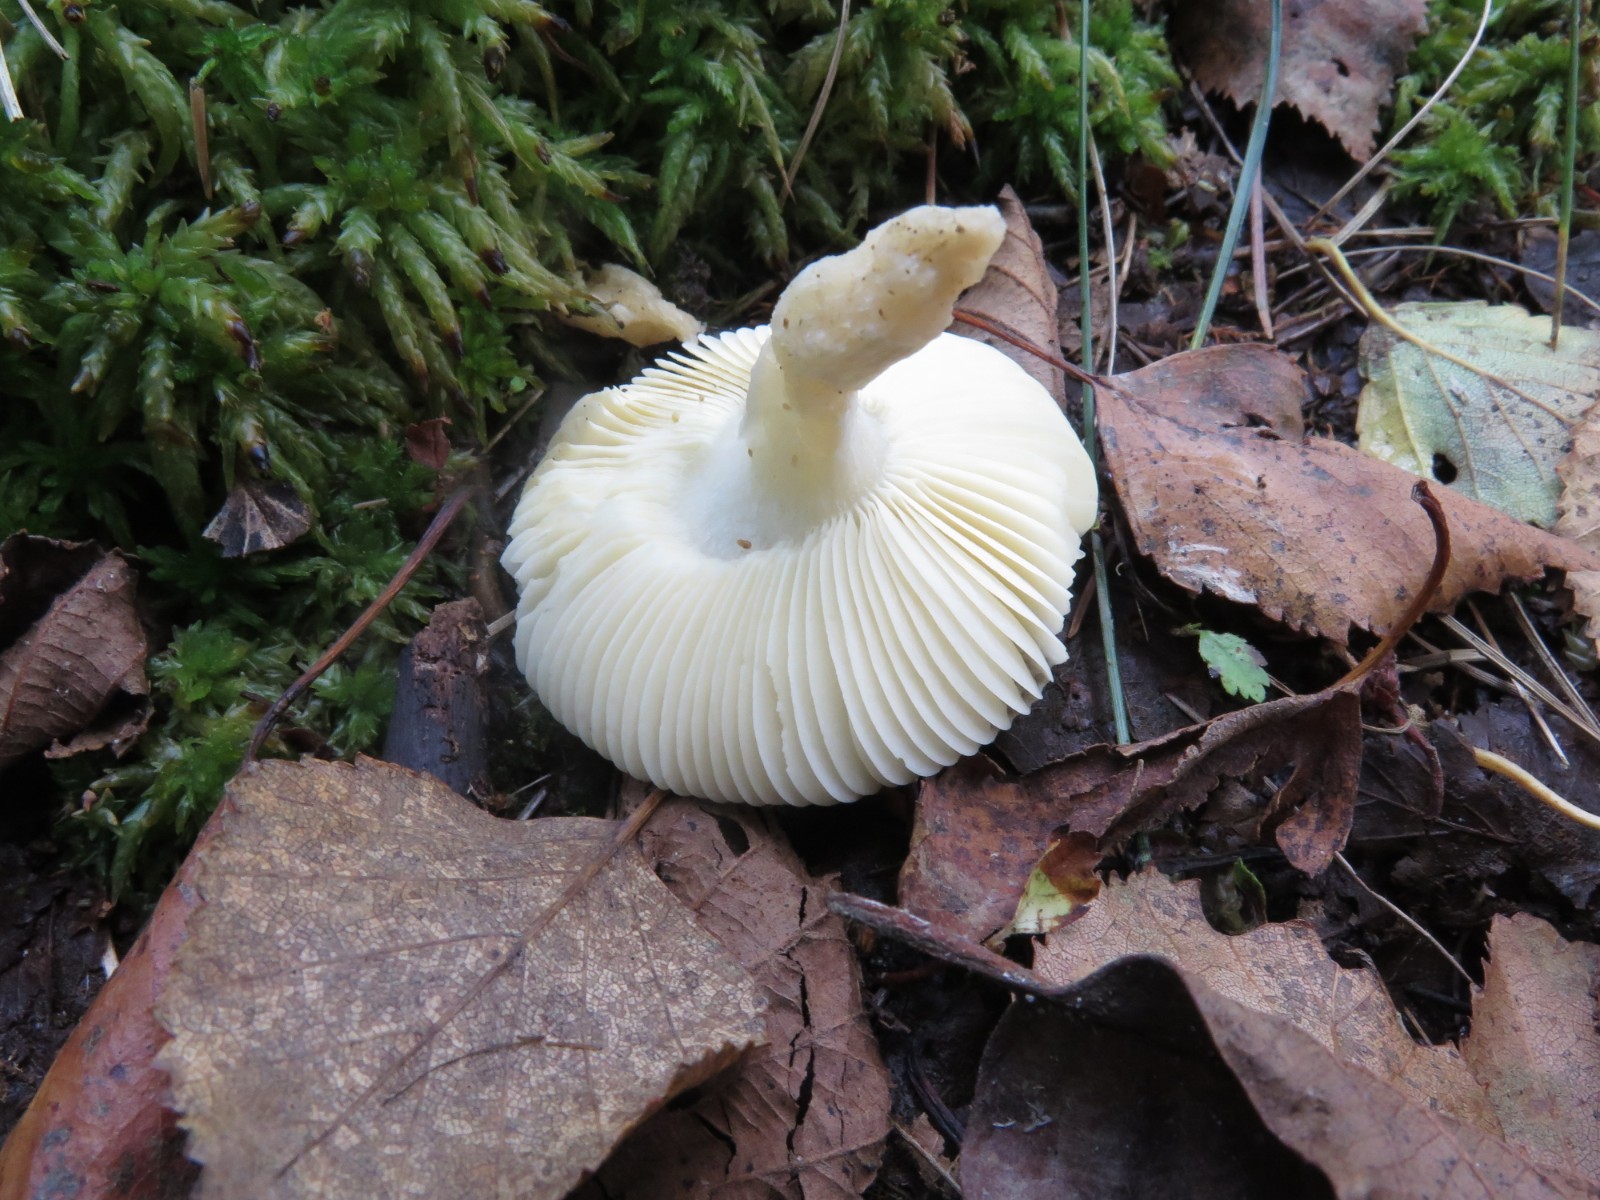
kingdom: Fungi
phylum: Basidiomycota
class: Agaricomycetes
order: Russulales
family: Russulaceae
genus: Russula
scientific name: Russula
